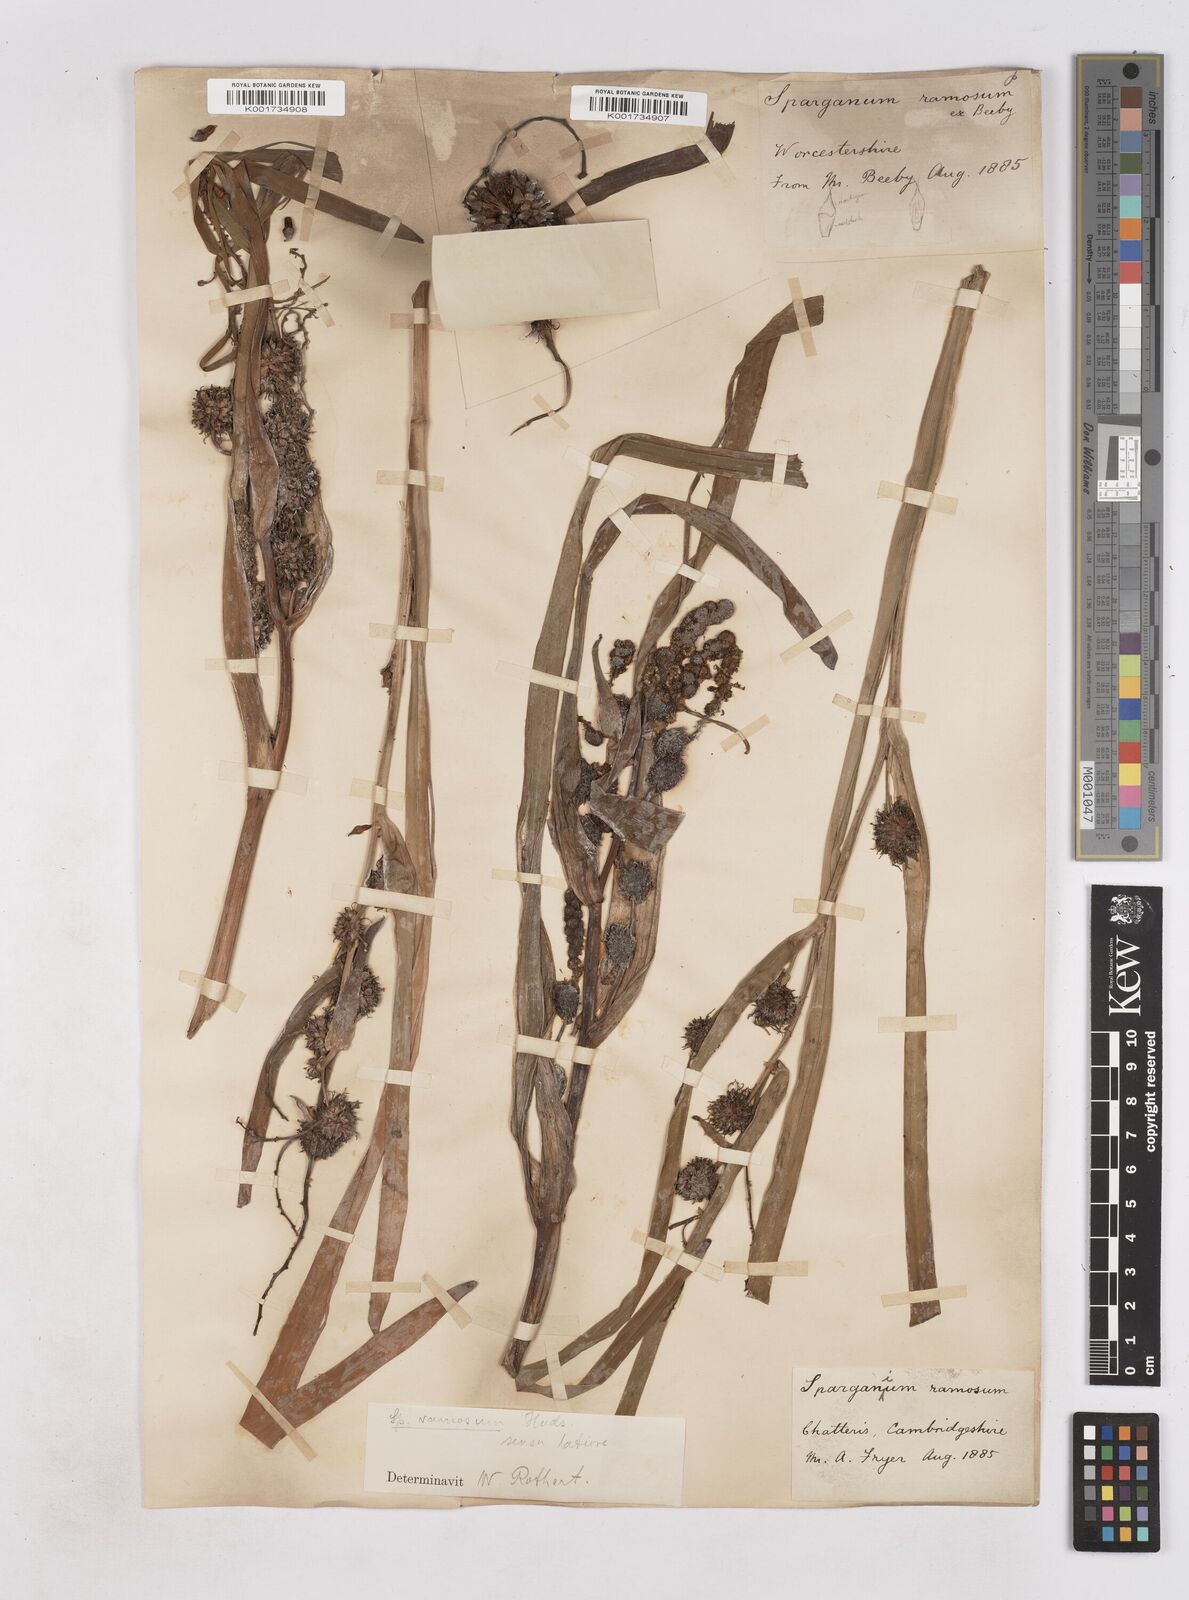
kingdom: Plantae
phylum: Tracheophyta
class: Liliopsida
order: Poales
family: Typhaceae
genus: Sparganium
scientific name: Sparganium erectum
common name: Branched bur-reed
